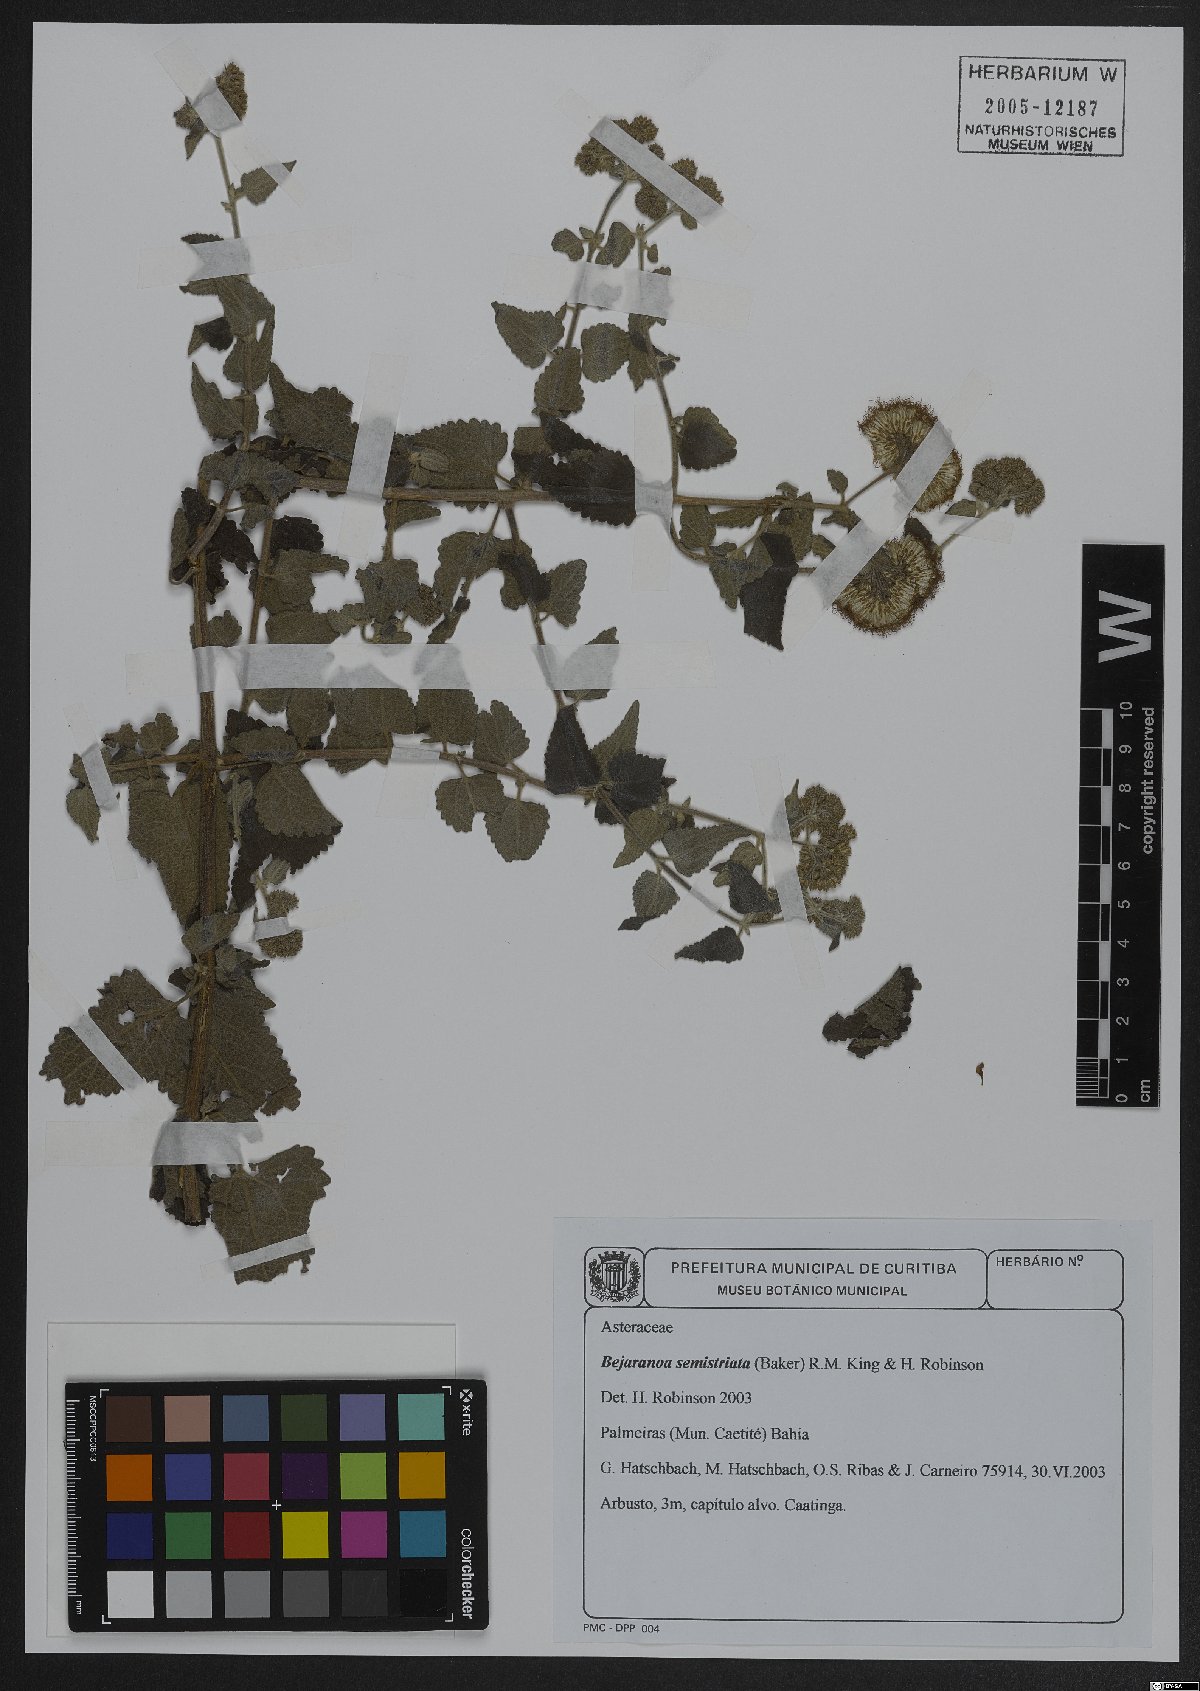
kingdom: Plantae
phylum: Tracheophyta
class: Magnoliopsida
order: Asterales
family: Asteraceae
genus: Bejaranoa
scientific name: Bejaranoa semistriata
